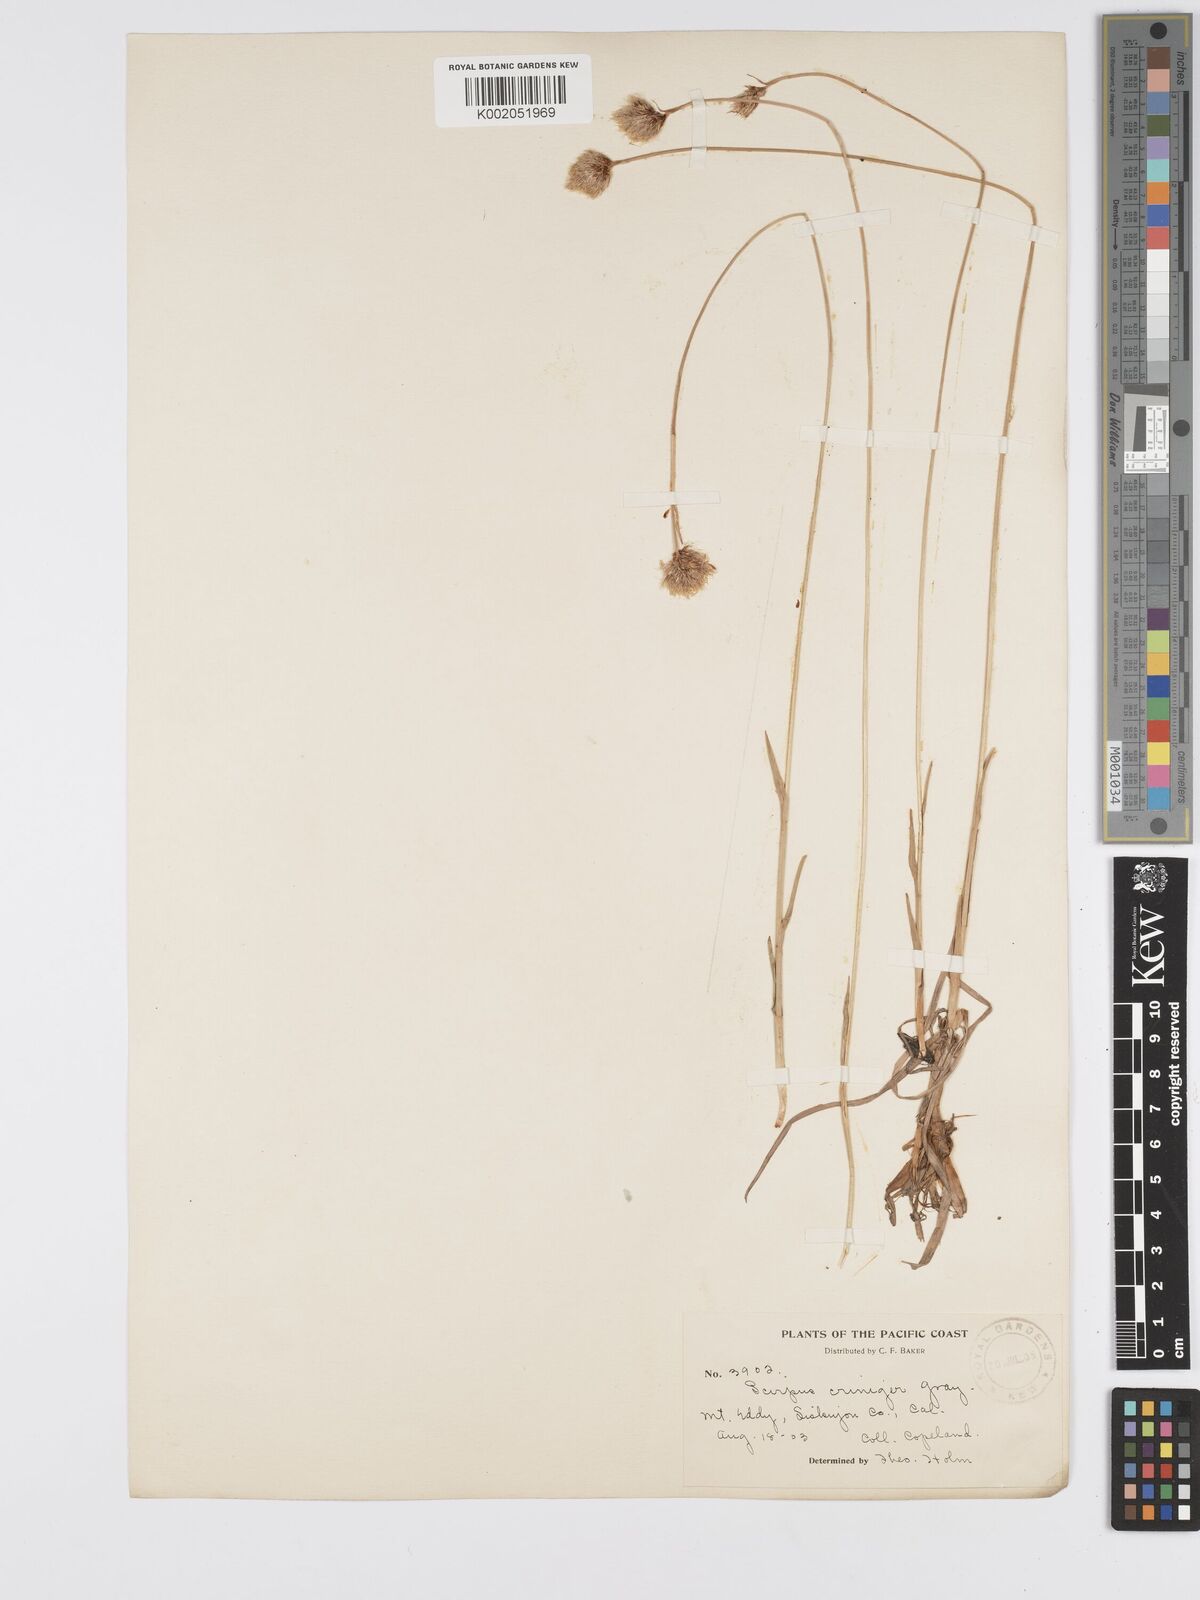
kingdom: Plantae
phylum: Tracheophyta
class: Liliopsida
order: Poales
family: Cyperaceae
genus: Calliscirpus
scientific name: Calliscirpus criniger
